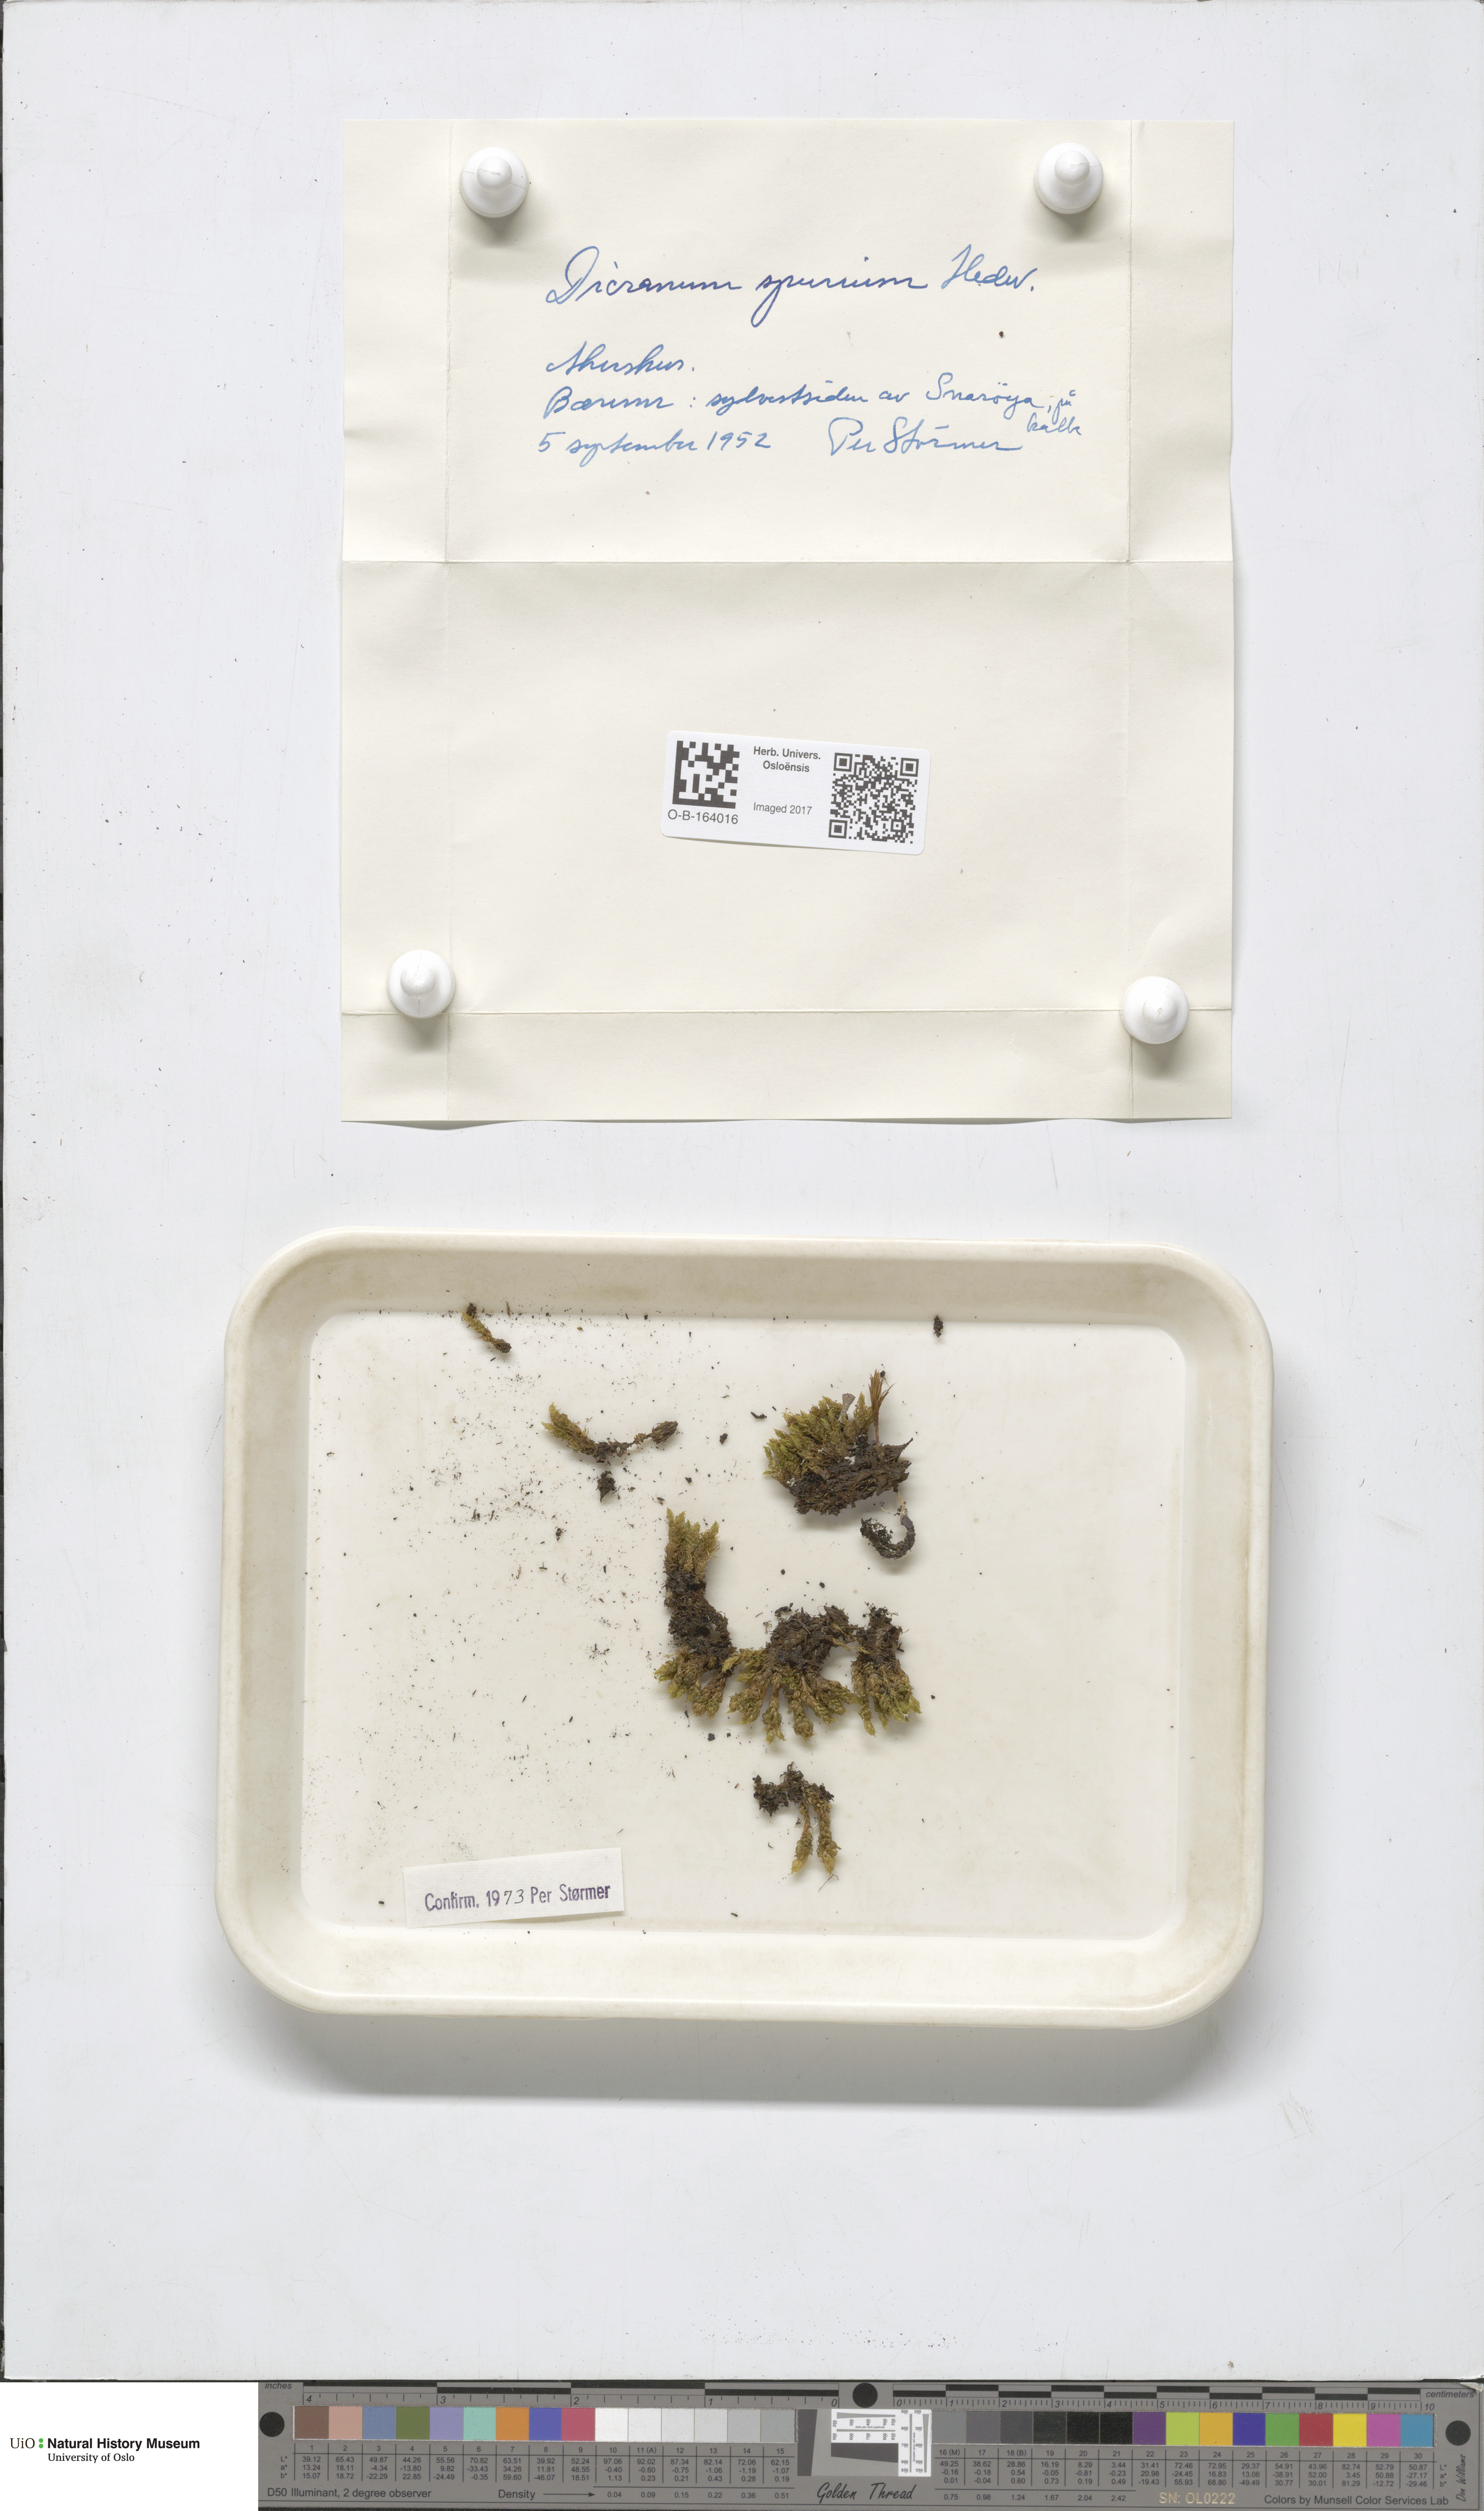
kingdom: Plantae
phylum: Bryophyta
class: Bryopsida
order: Dicranales
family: Dicranaceae
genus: Dicranum
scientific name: Dicranum spurium
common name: Spurred broom moss
